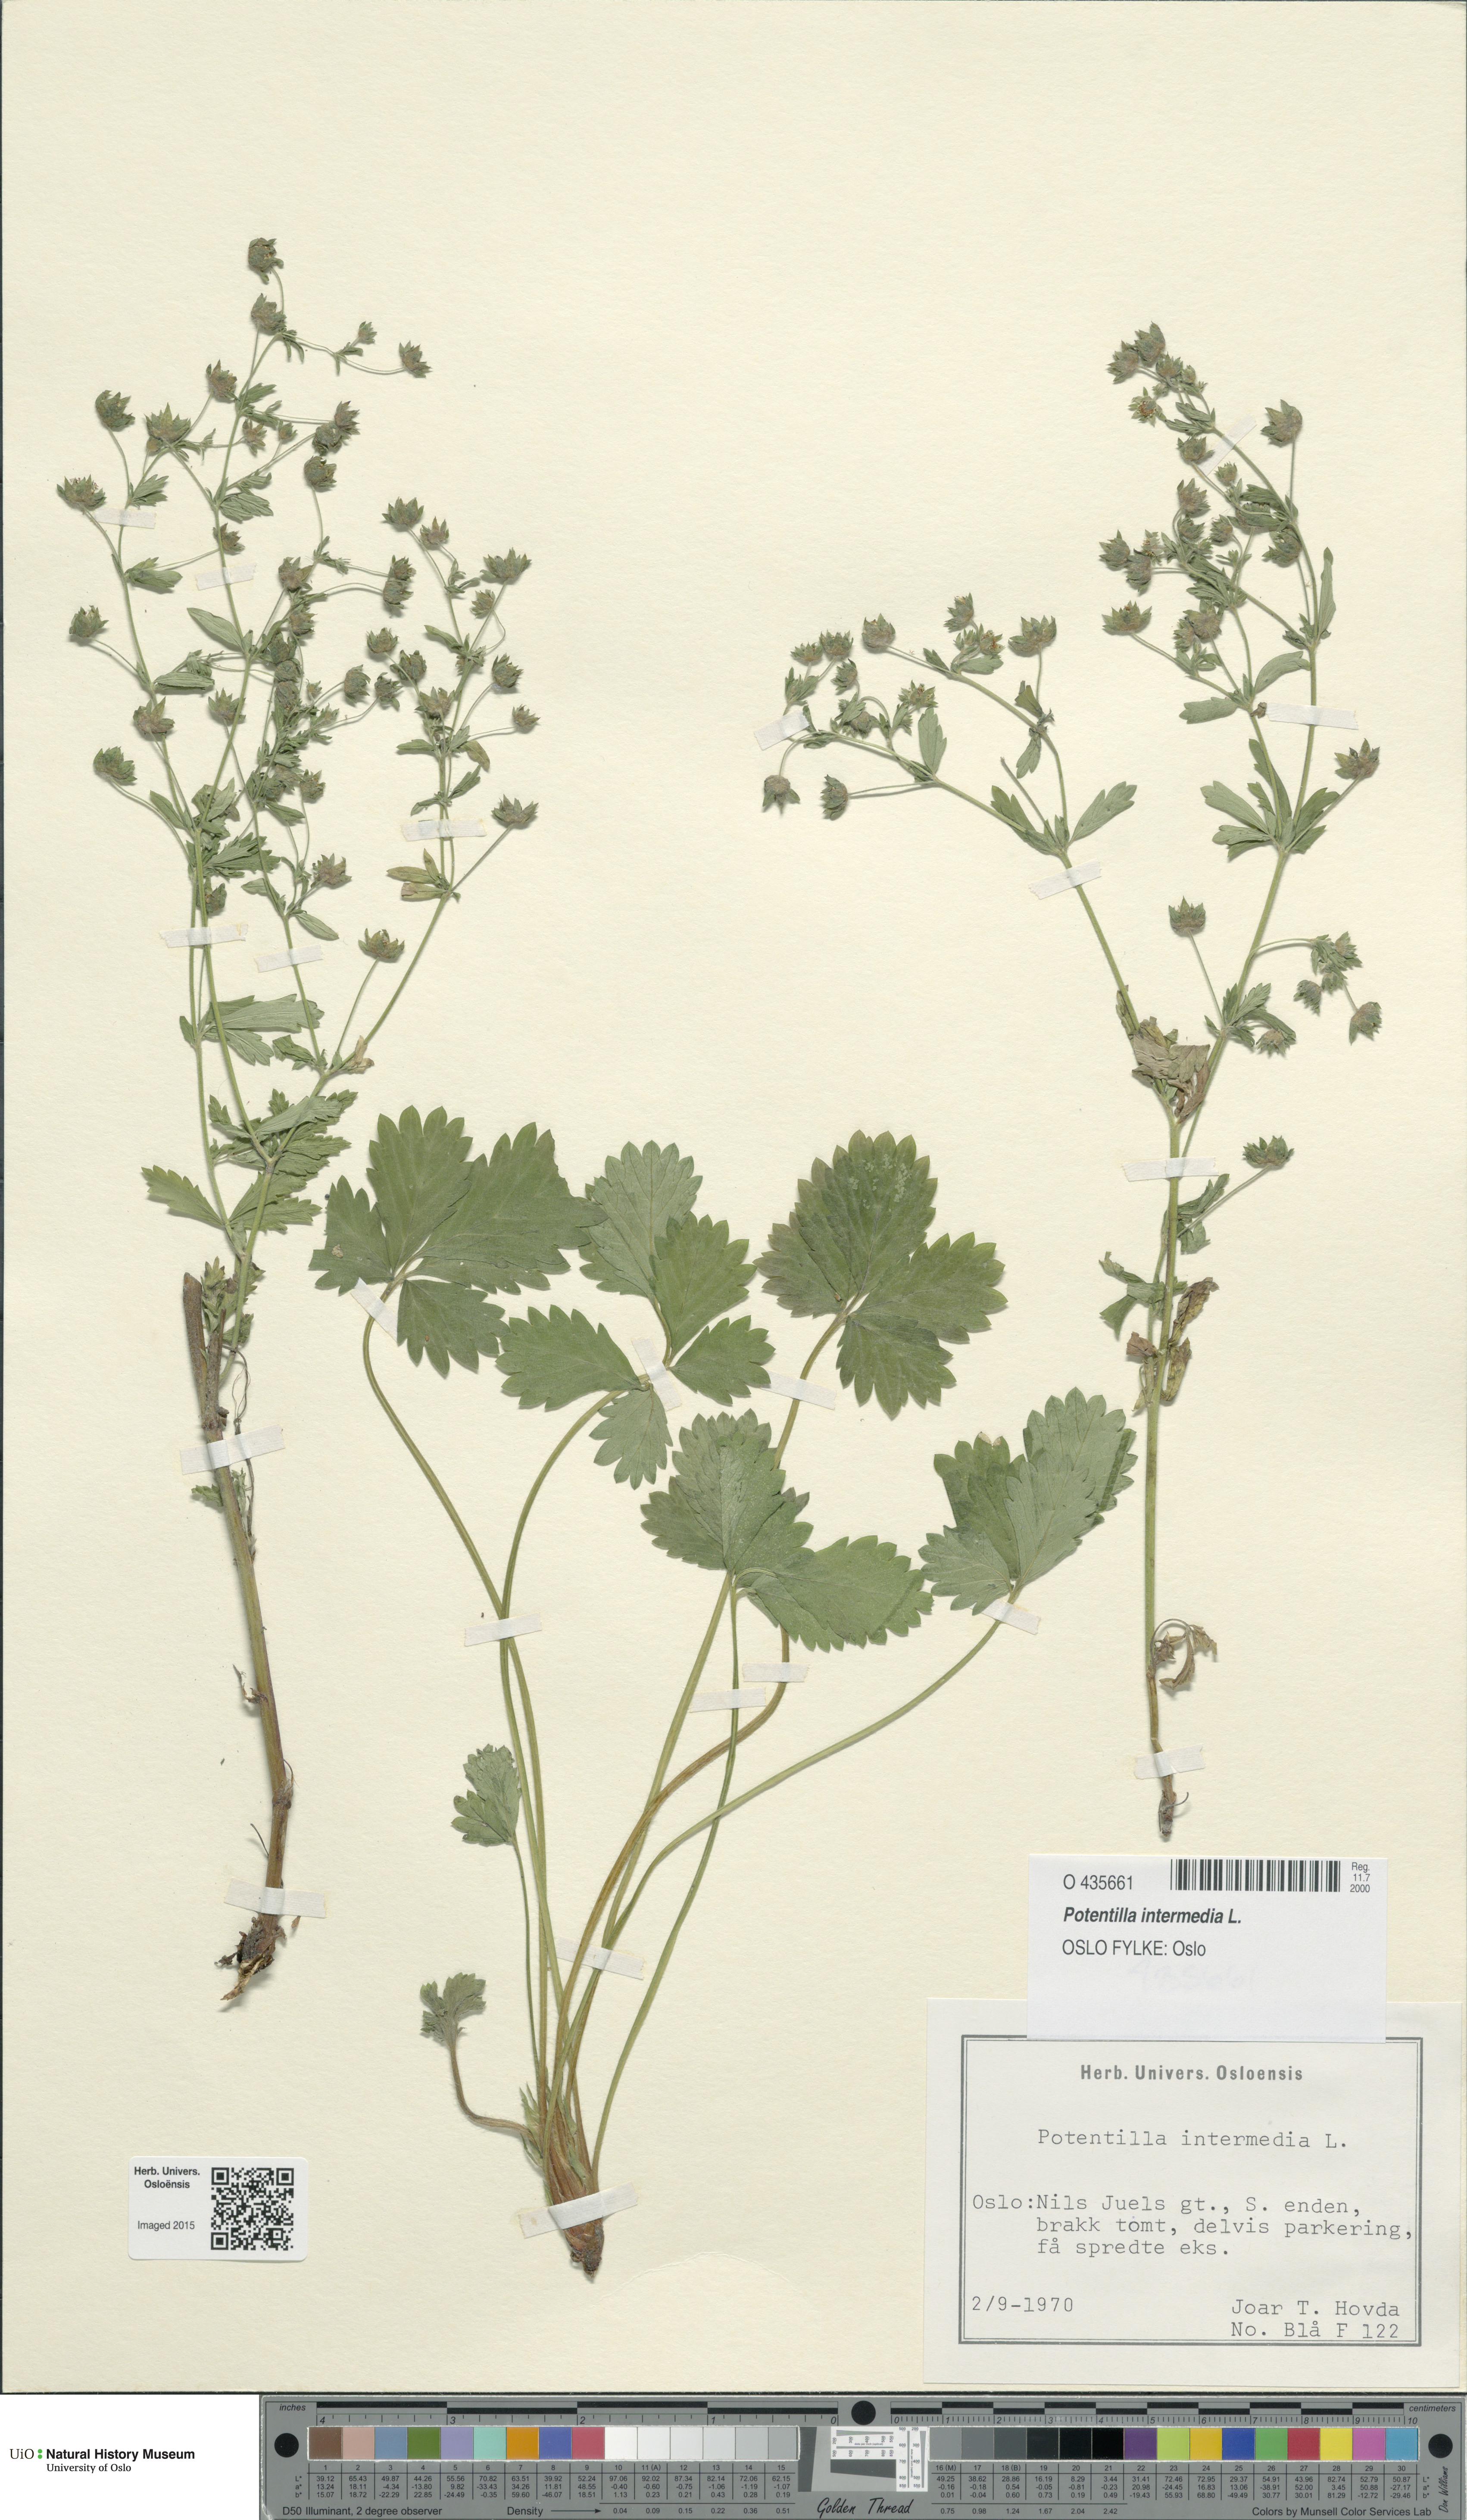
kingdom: Plantae
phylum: Tracheophyta
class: Magnoliopsida
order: Rosales
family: Rosaceae
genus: Potentilla
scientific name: Potentilla intermedia
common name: Downy cinquefoil
